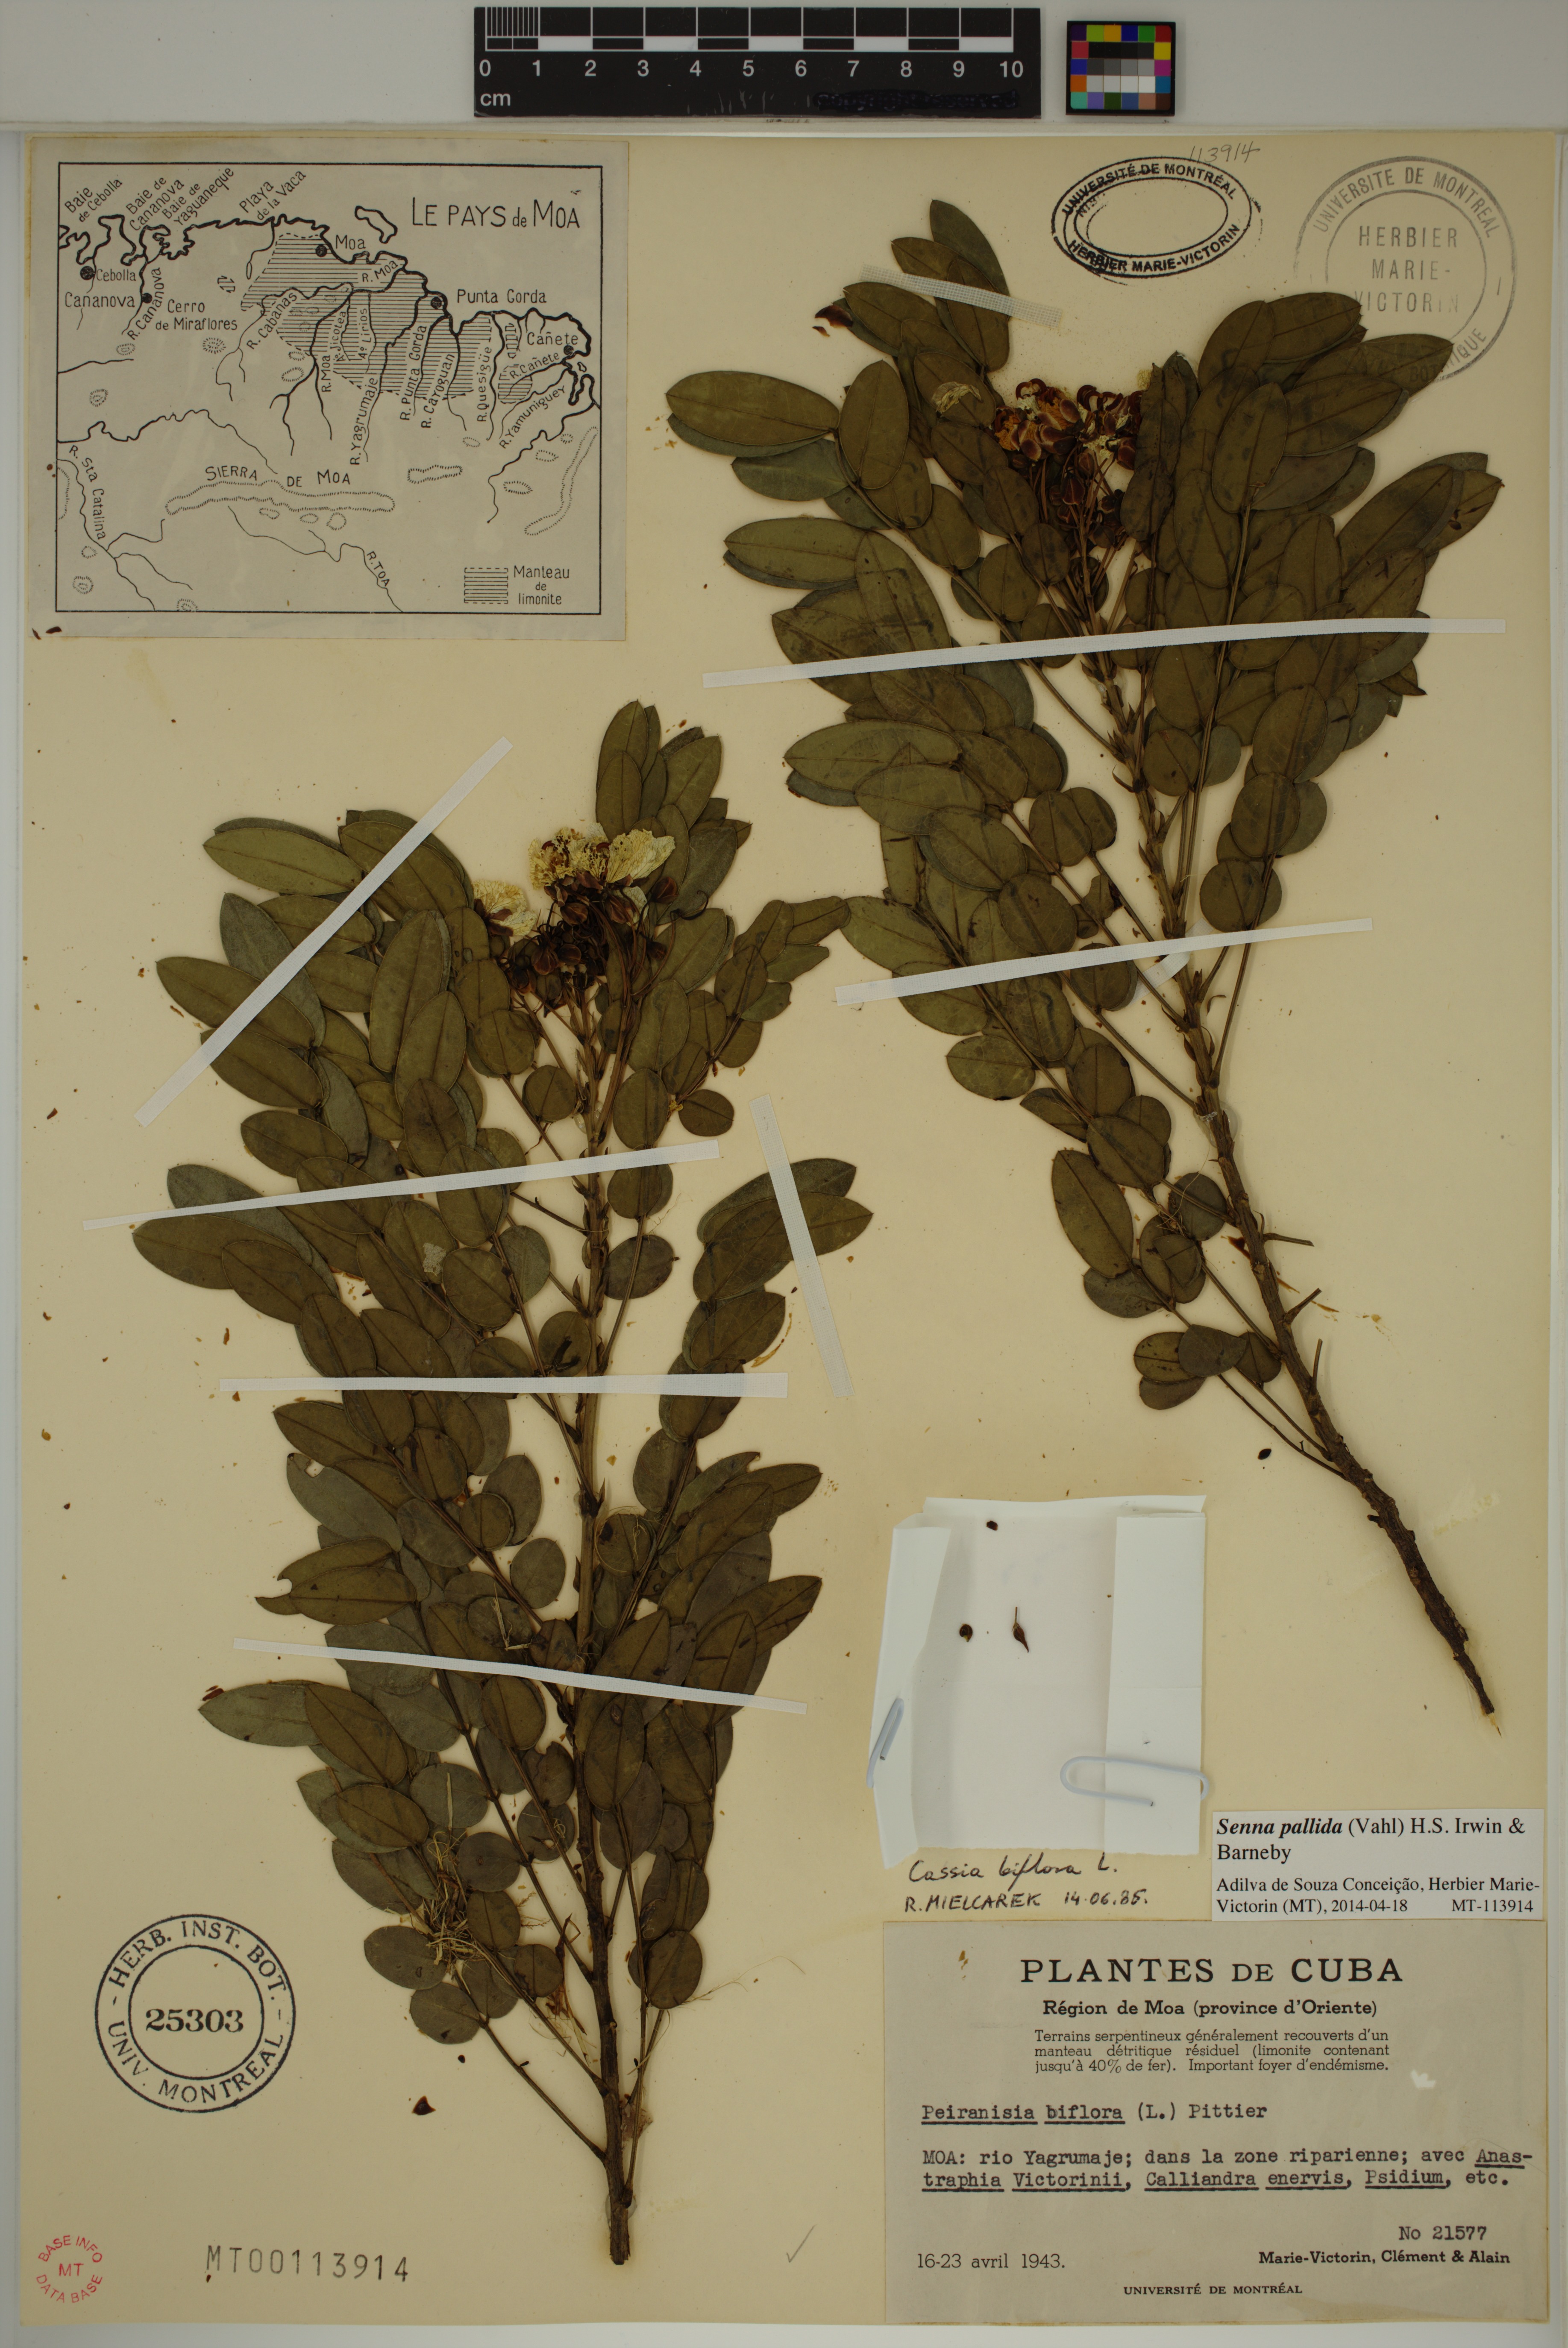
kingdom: Plantae
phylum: Tracheophyta
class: Magnoliopsida
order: Fabales
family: Fabaceae
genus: Senna
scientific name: Senna pallida
